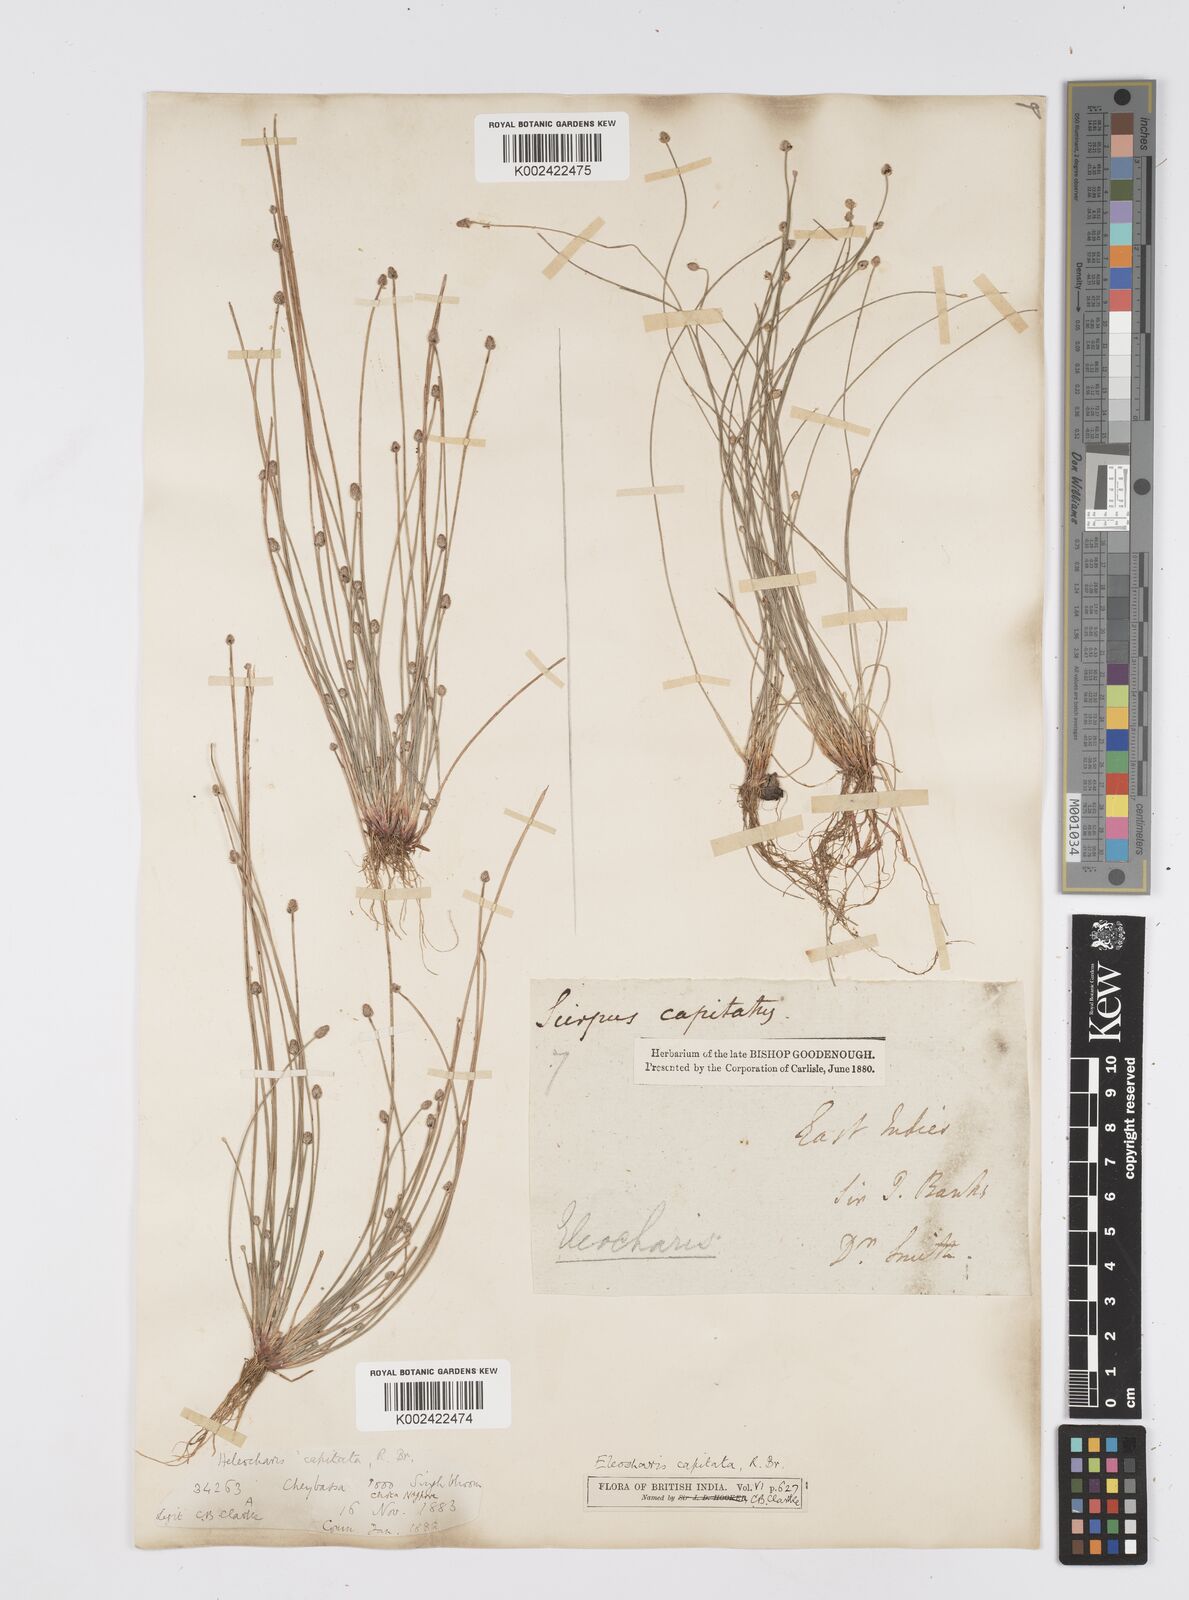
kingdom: Plantae
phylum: Tracheophyta
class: Liliopsida
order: Poales
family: Cyperaceae
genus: Eleocharis
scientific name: Eleocharis geniculata
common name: Canada spikesedge
